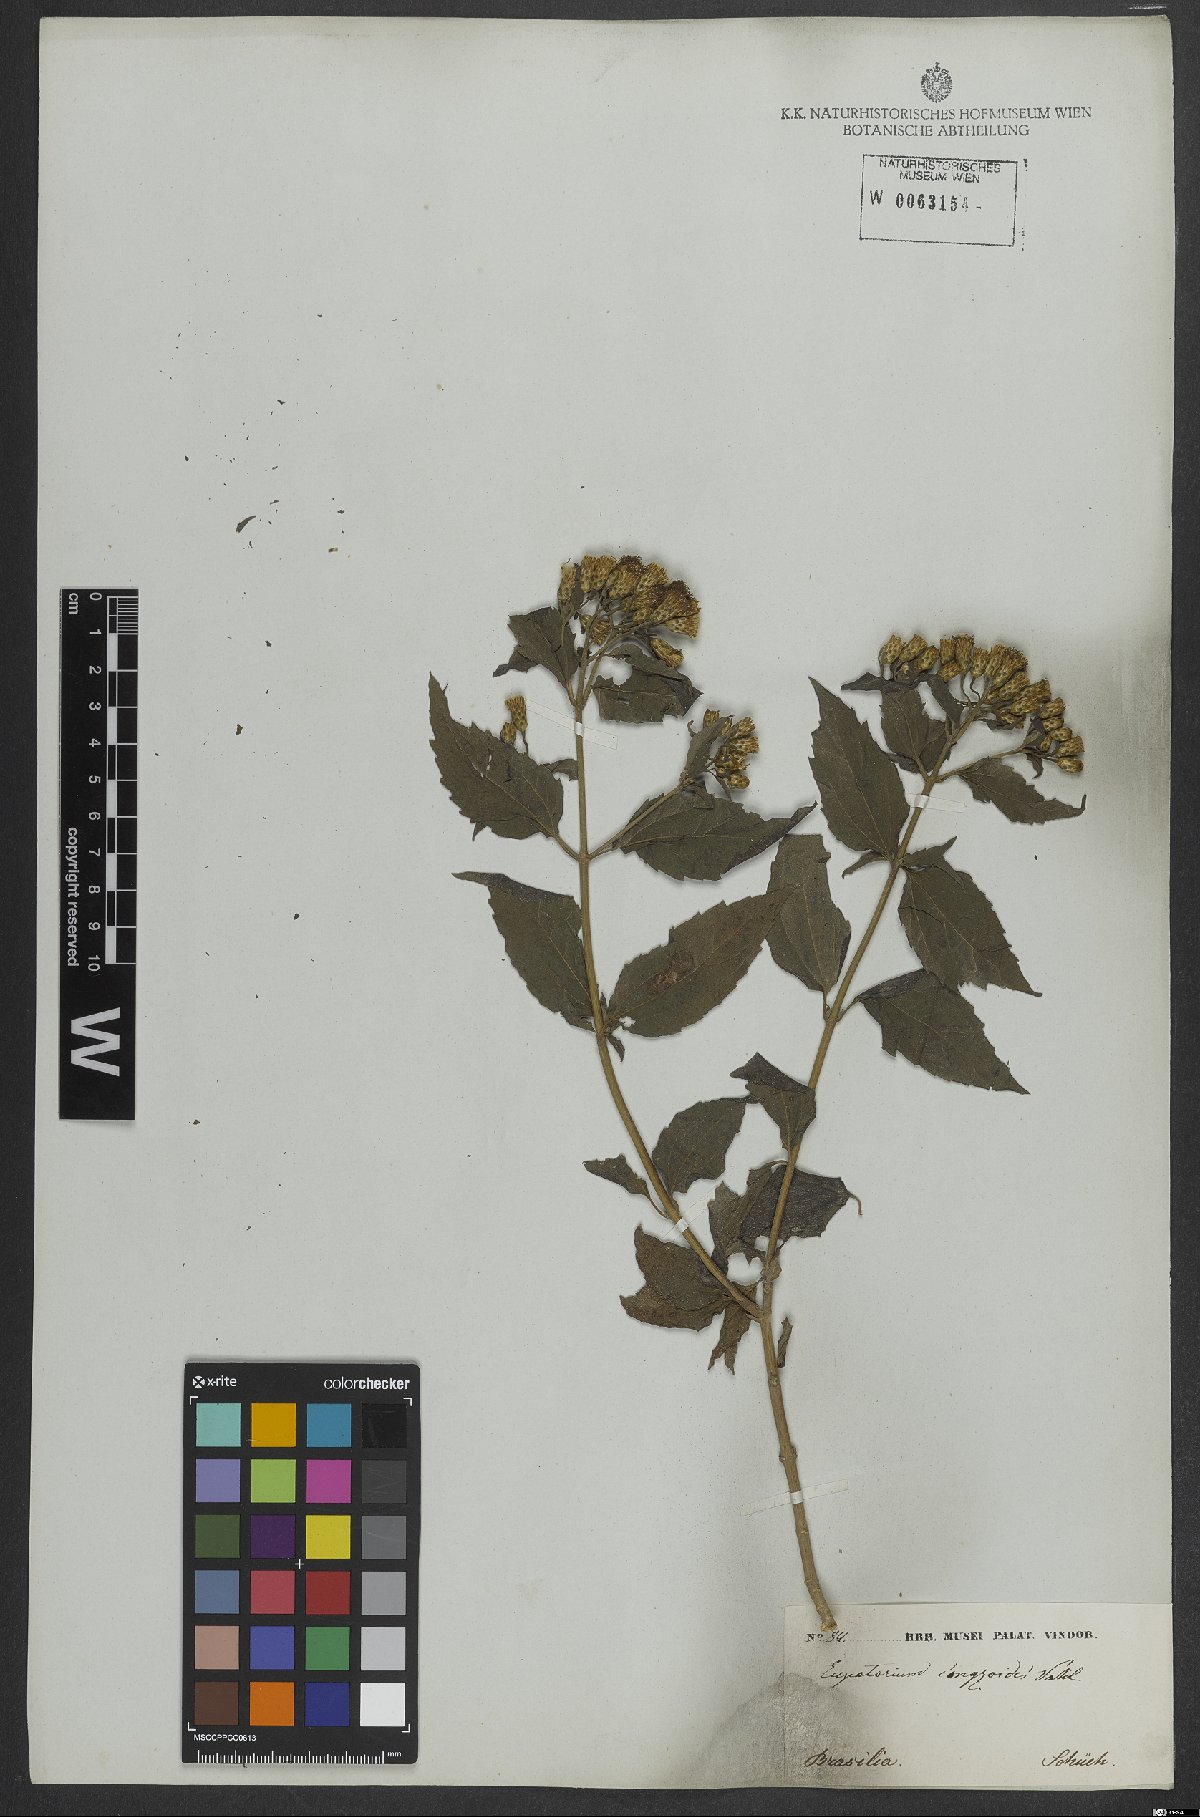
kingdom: Plantae
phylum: Tracheophyta
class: Magnoliopsida
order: Asterales
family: Asteraceae
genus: Chromolaena
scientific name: Chromolaena odorata
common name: Siamweed
